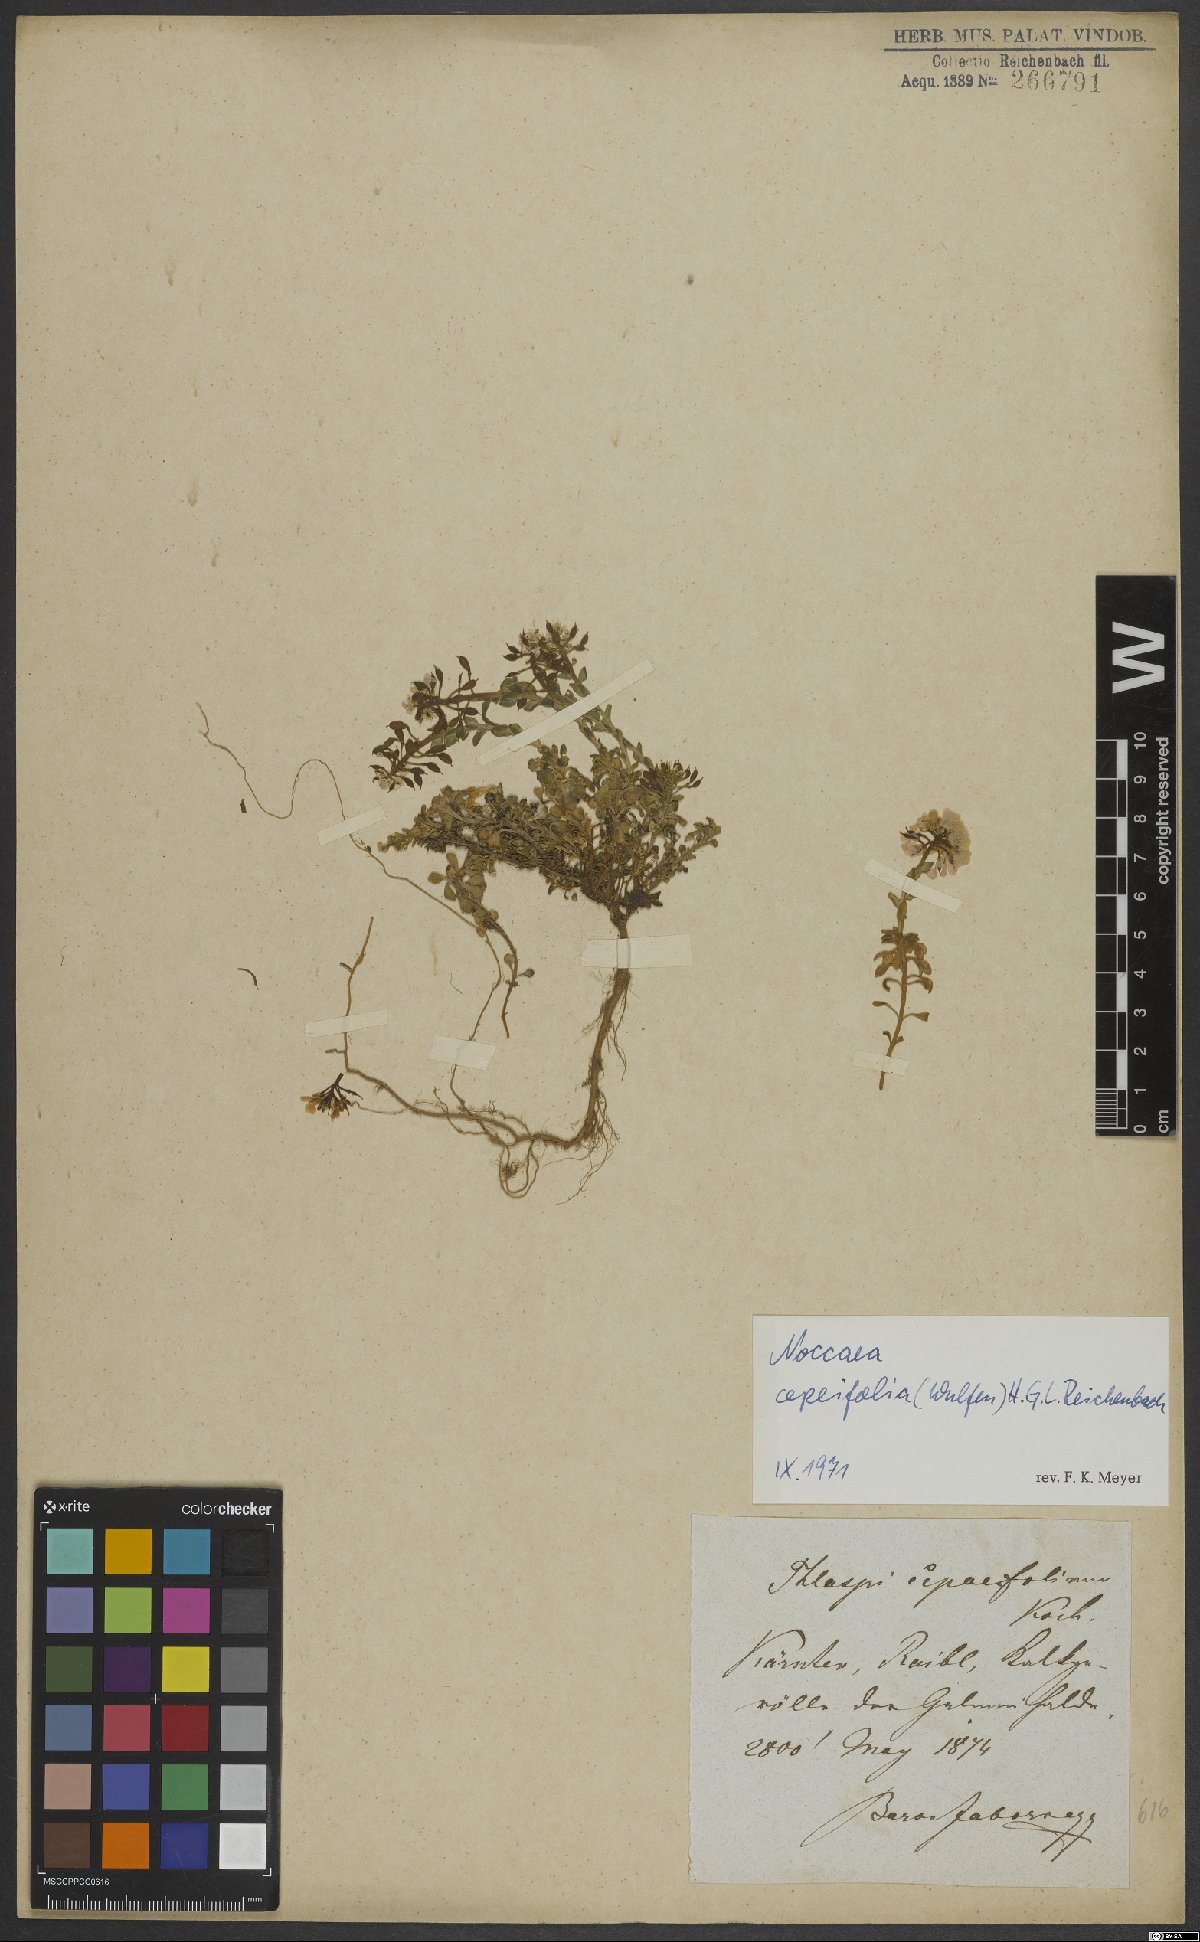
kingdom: Plantae
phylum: Tracheophyta
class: Magnoliopsida
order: Brassicales
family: Brassicaceae
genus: Noccaea
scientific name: Noccaea cepaeifolia
